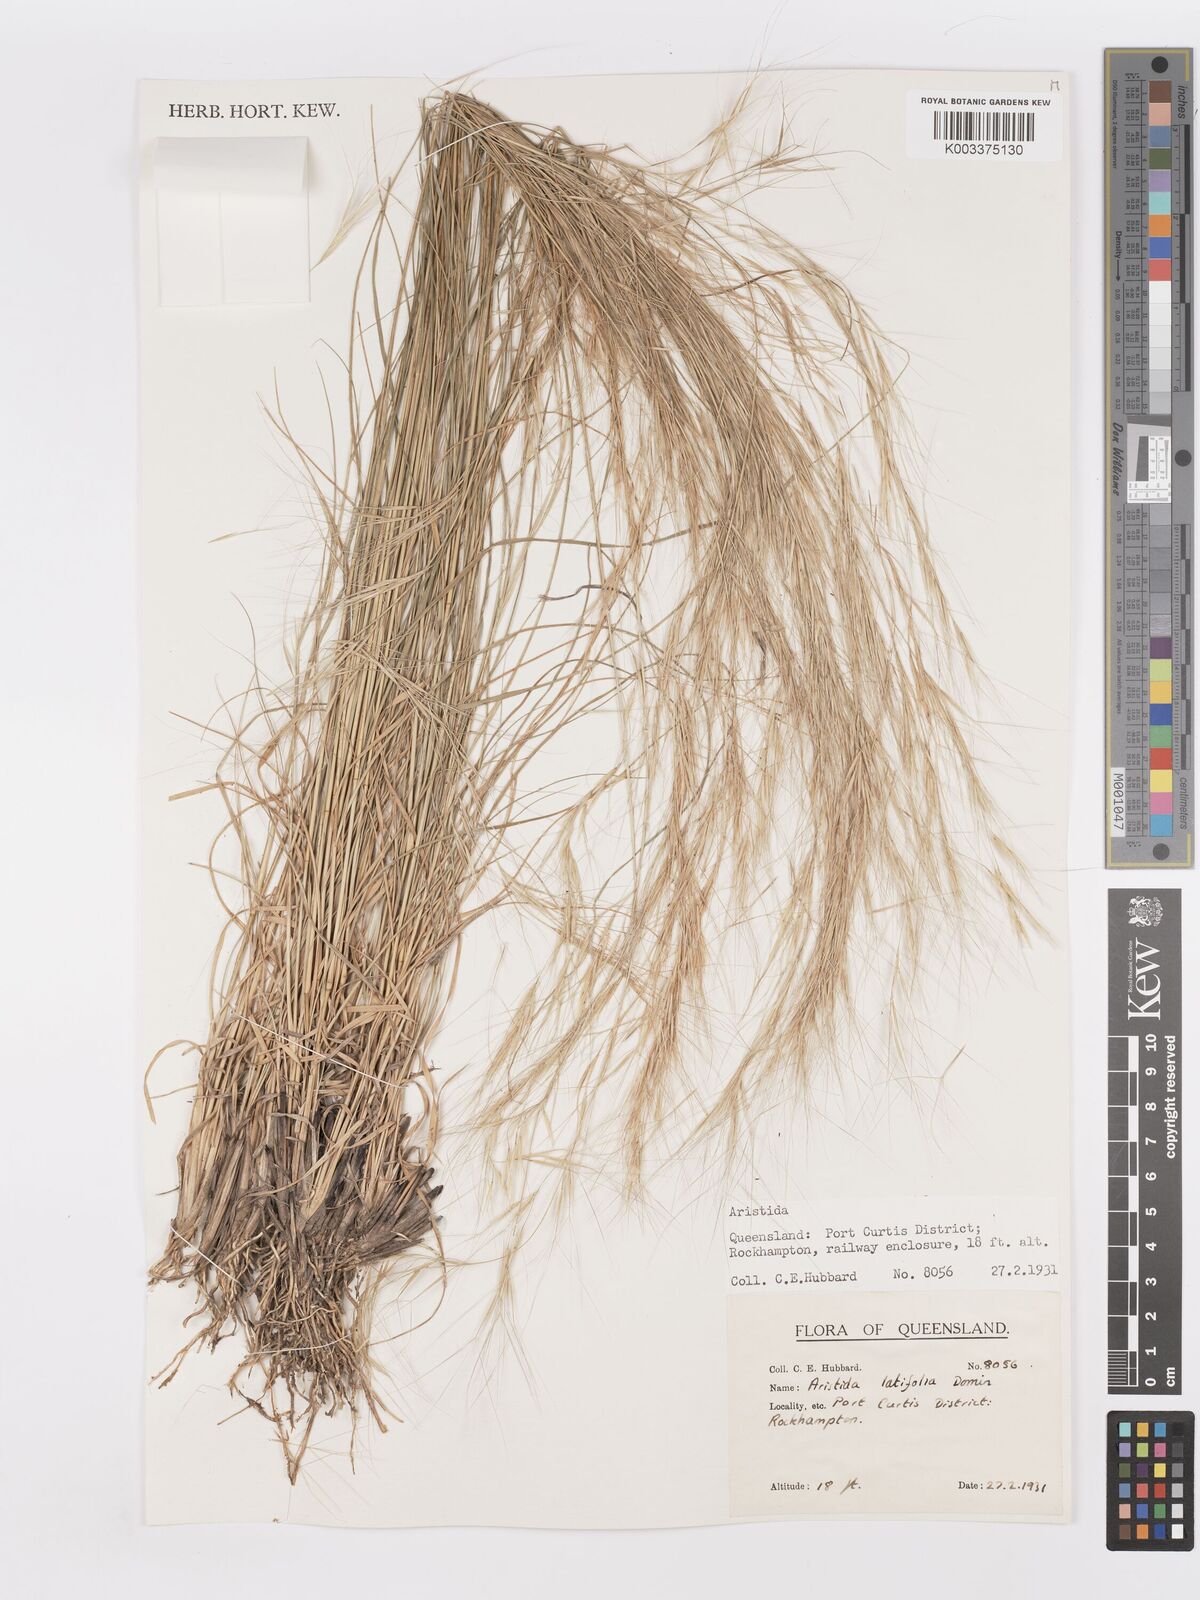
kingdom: Plantae
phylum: Tracheophyta
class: Liliopsida
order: Poales
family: Poaceae
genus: Aristida
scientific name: Aristida latifolia
